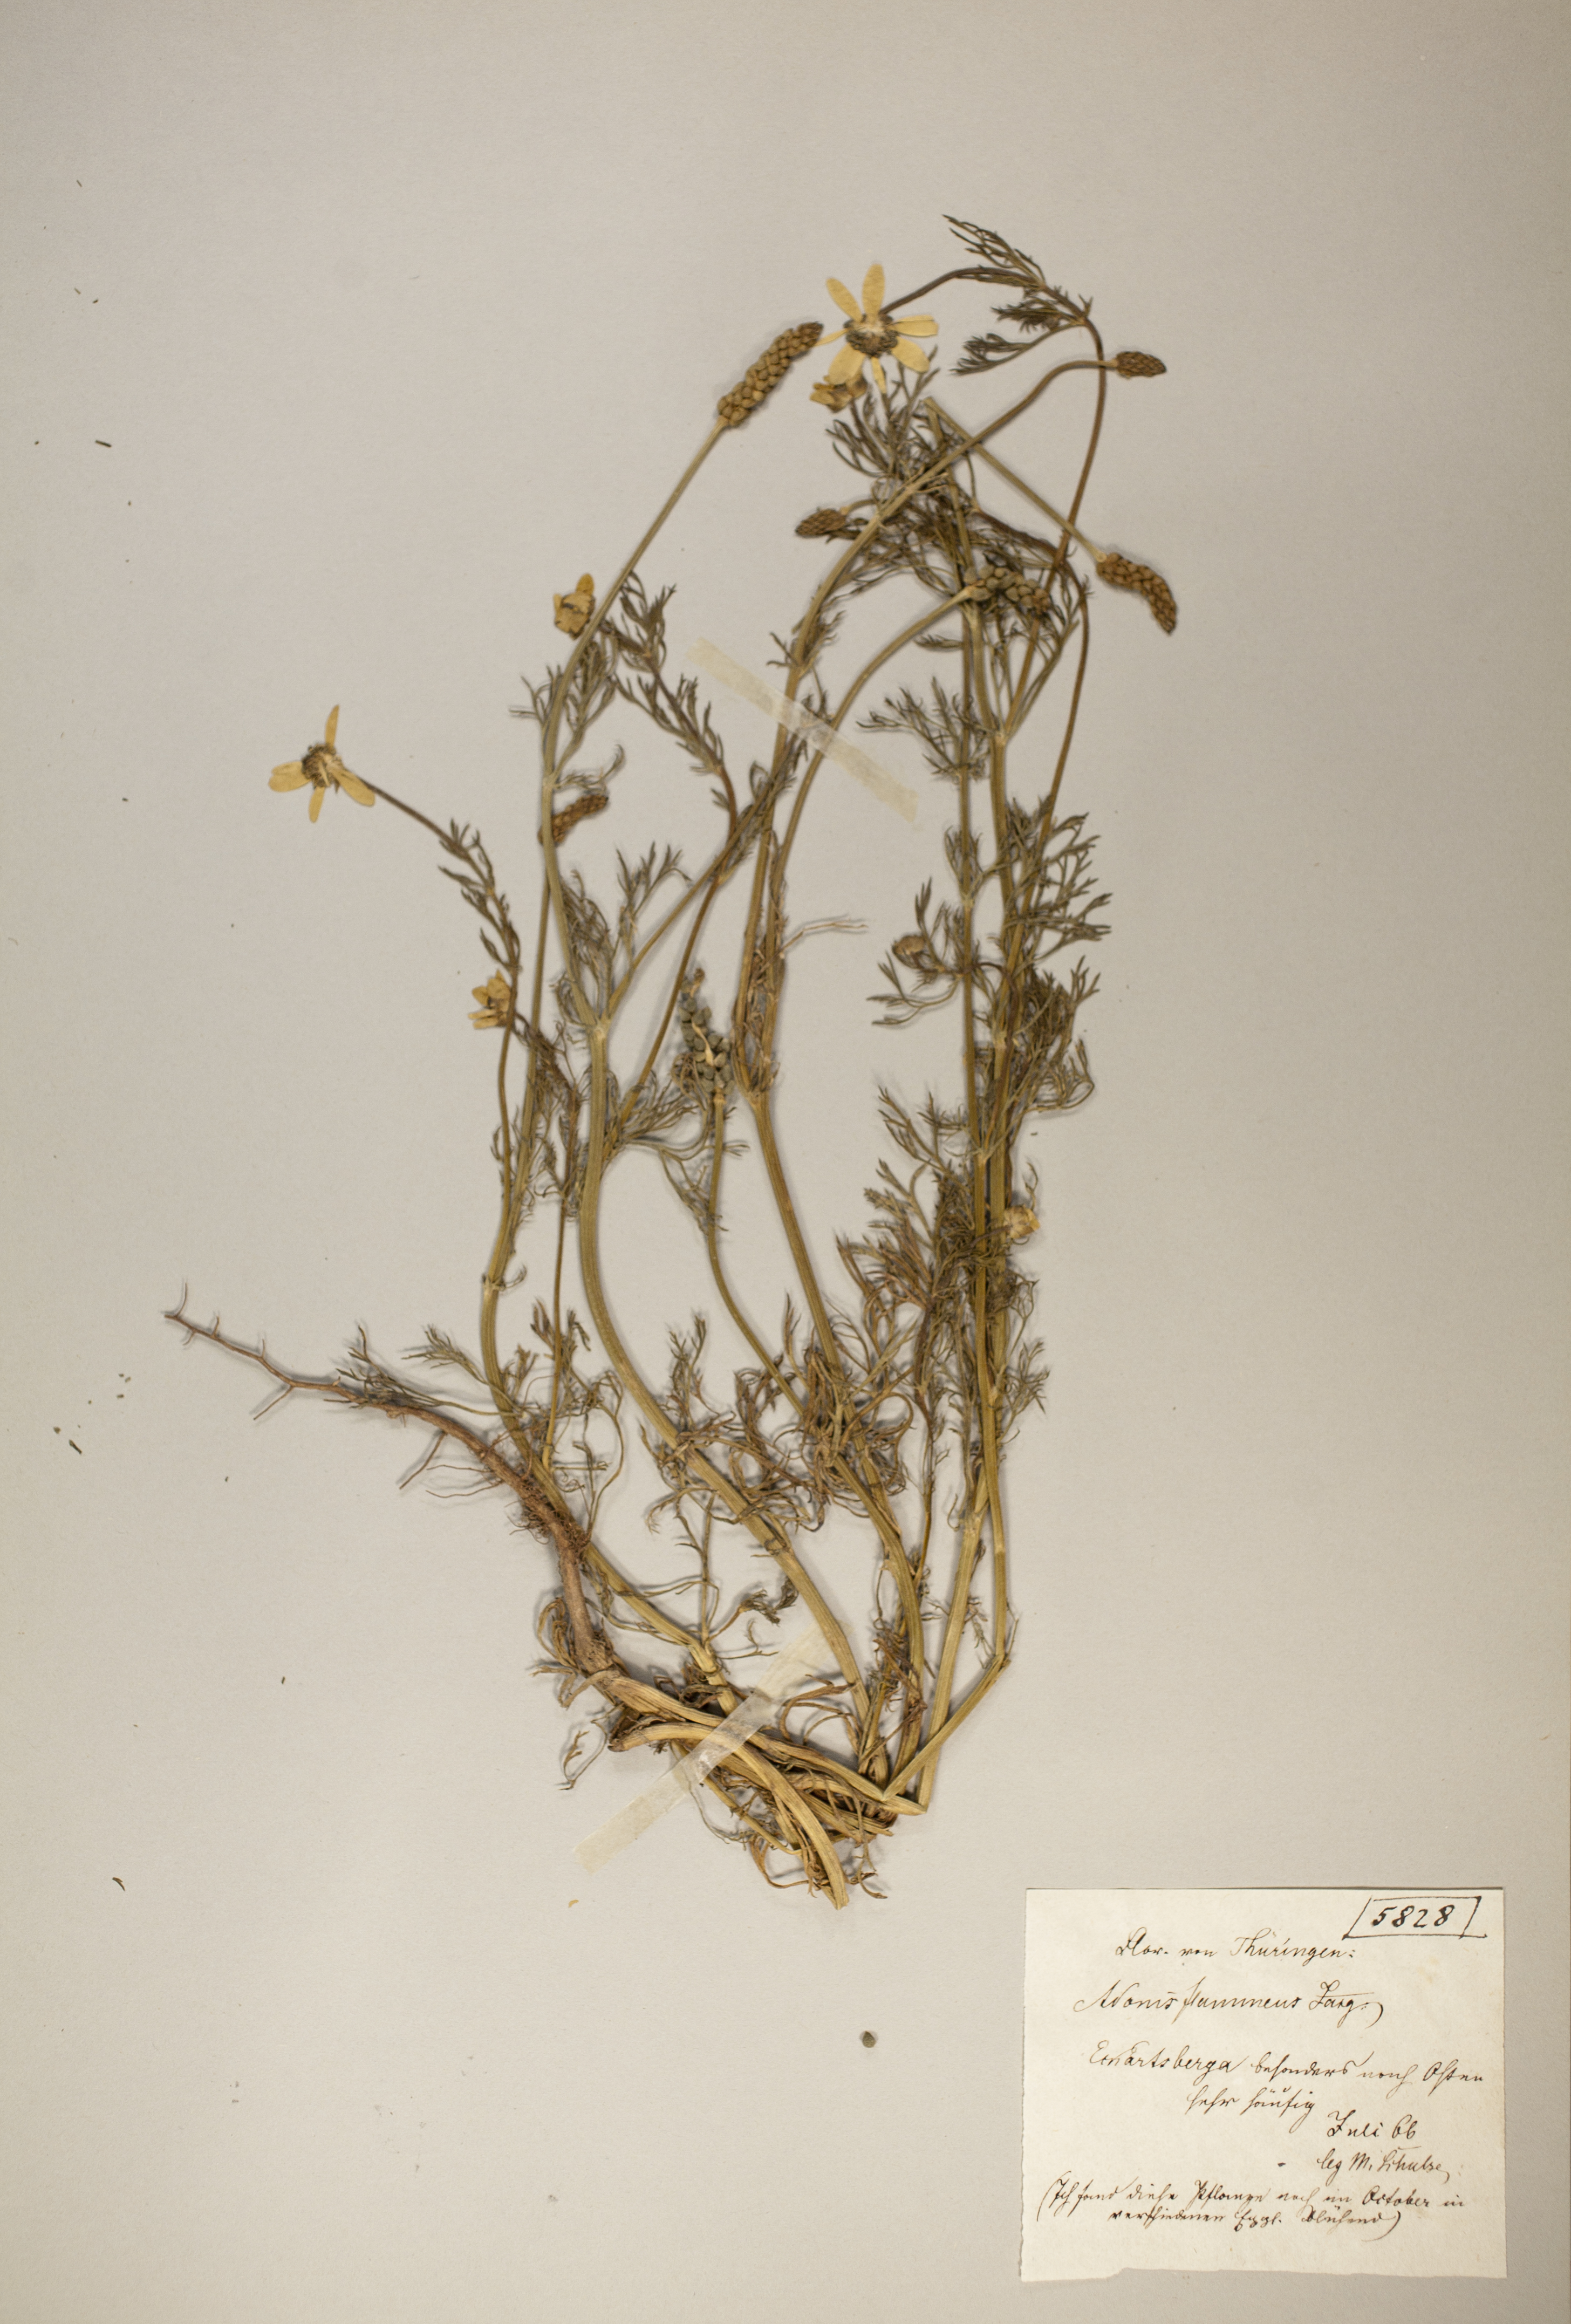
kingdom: Plantae
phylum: Tracheophyta
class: Magnoliopsida
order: Ranunculales
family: Ranunculaceae
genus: Adonis
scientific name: Adonis flammea
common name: Large pheasant's-eye
